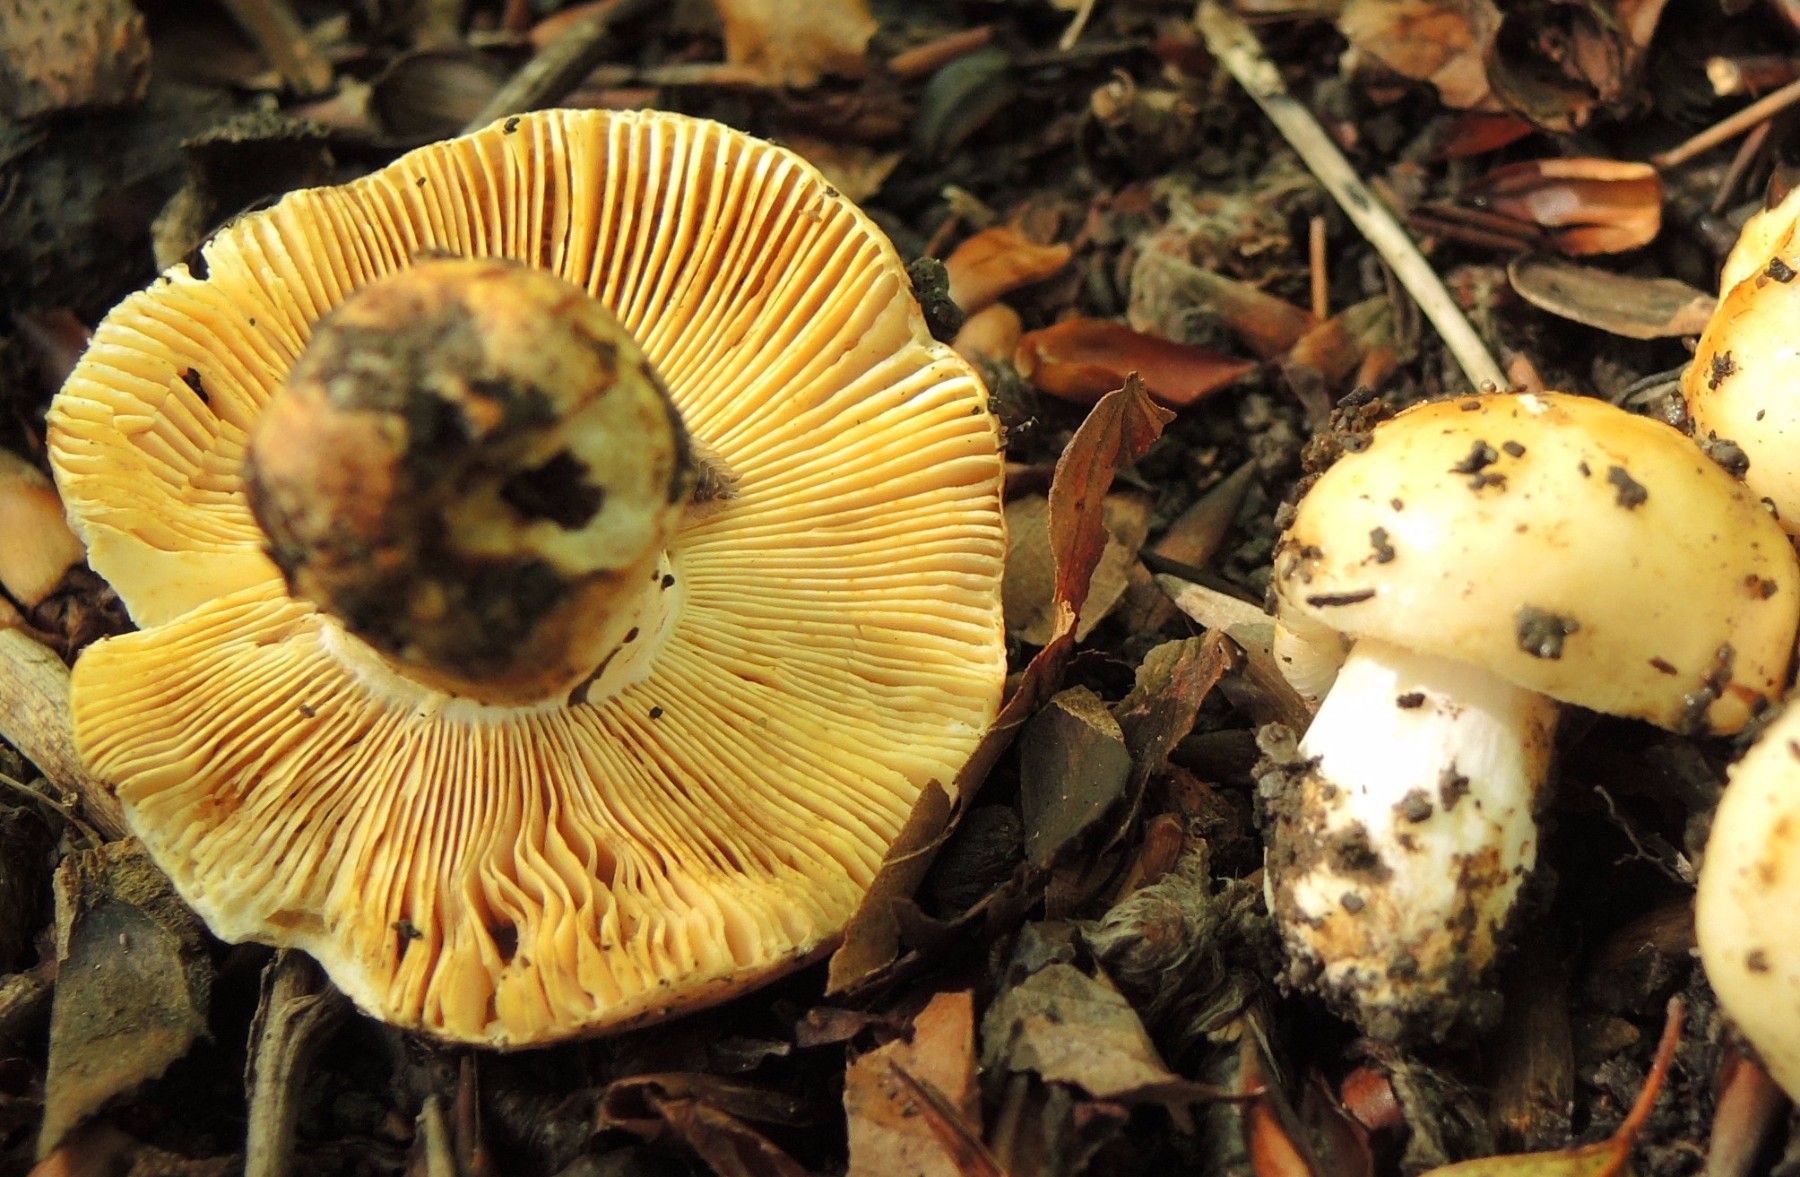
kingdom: Fungi
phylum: Basidiomycota
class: Agaricomycetes
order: Russulales
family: Russulaceae
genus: Russula
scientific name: Russula maculata
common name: plettet skørhat
